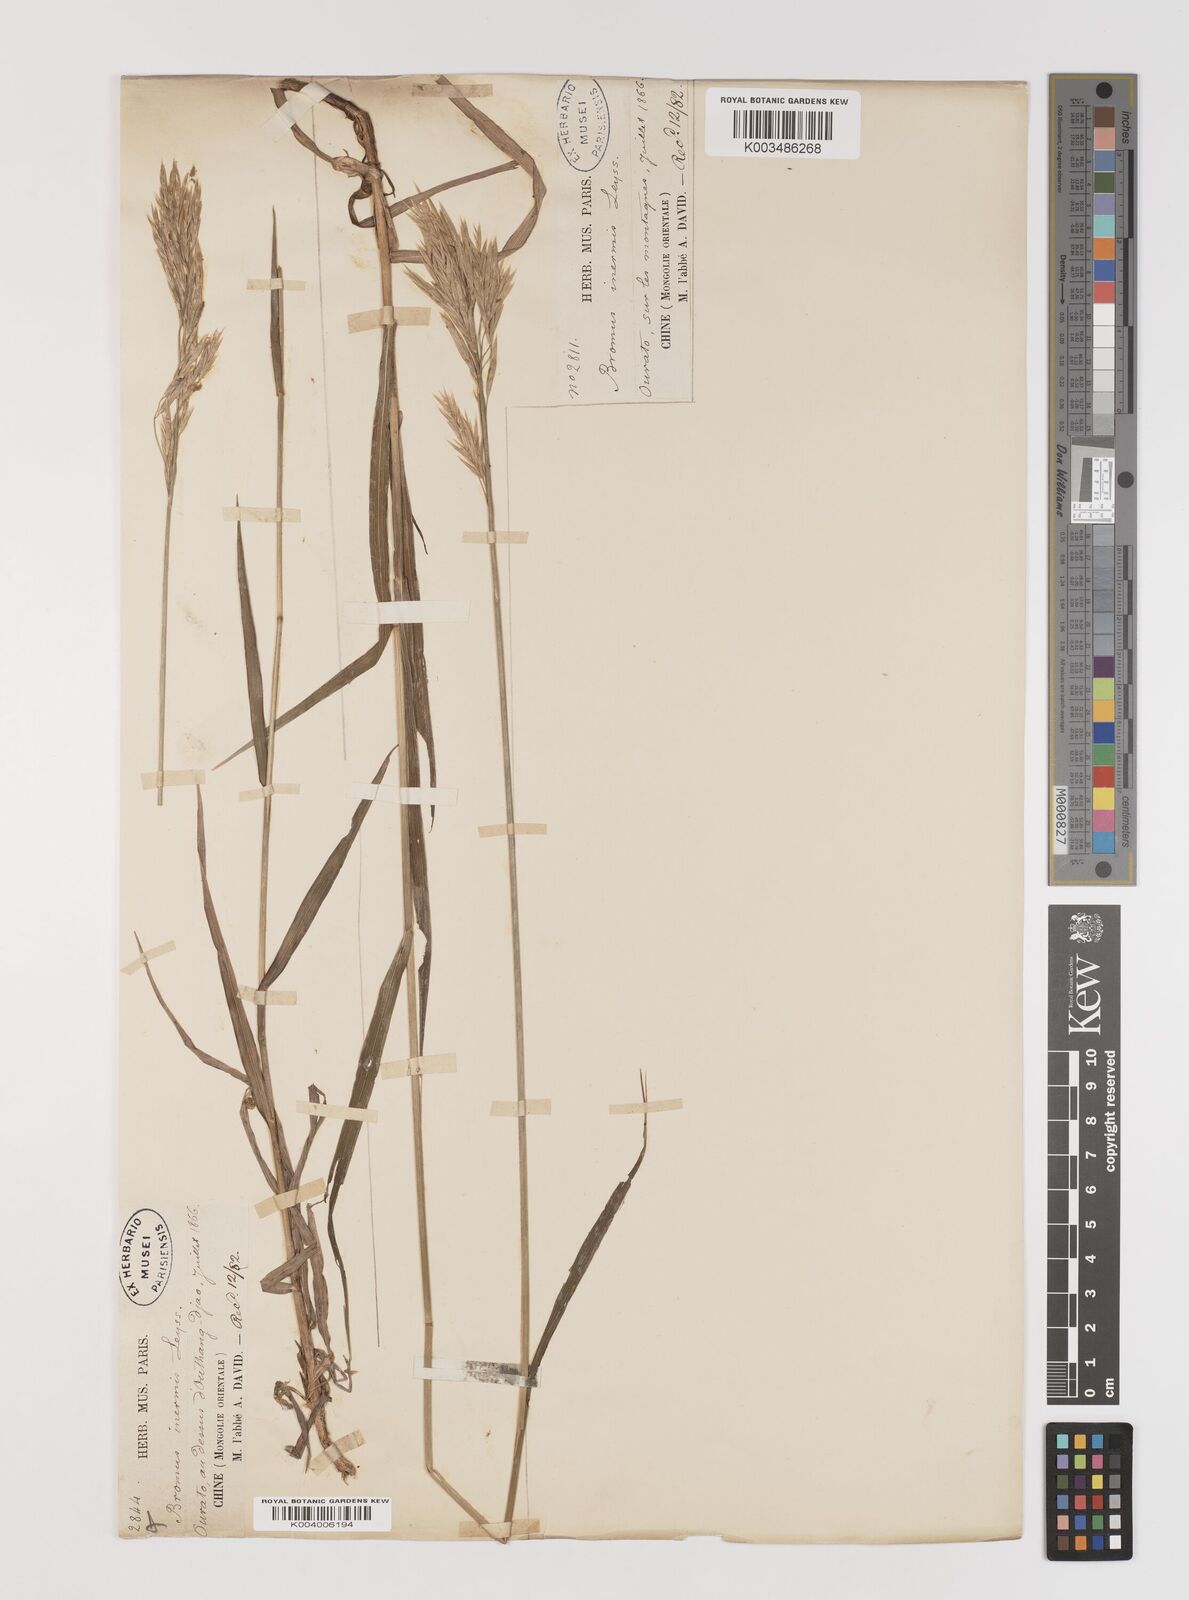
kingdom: Plantae
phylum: Tracheophyta
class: Liliopsida
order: Poales
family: Poaceae
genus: Bromus
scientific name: Bromus inermis
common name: Smooth brome
